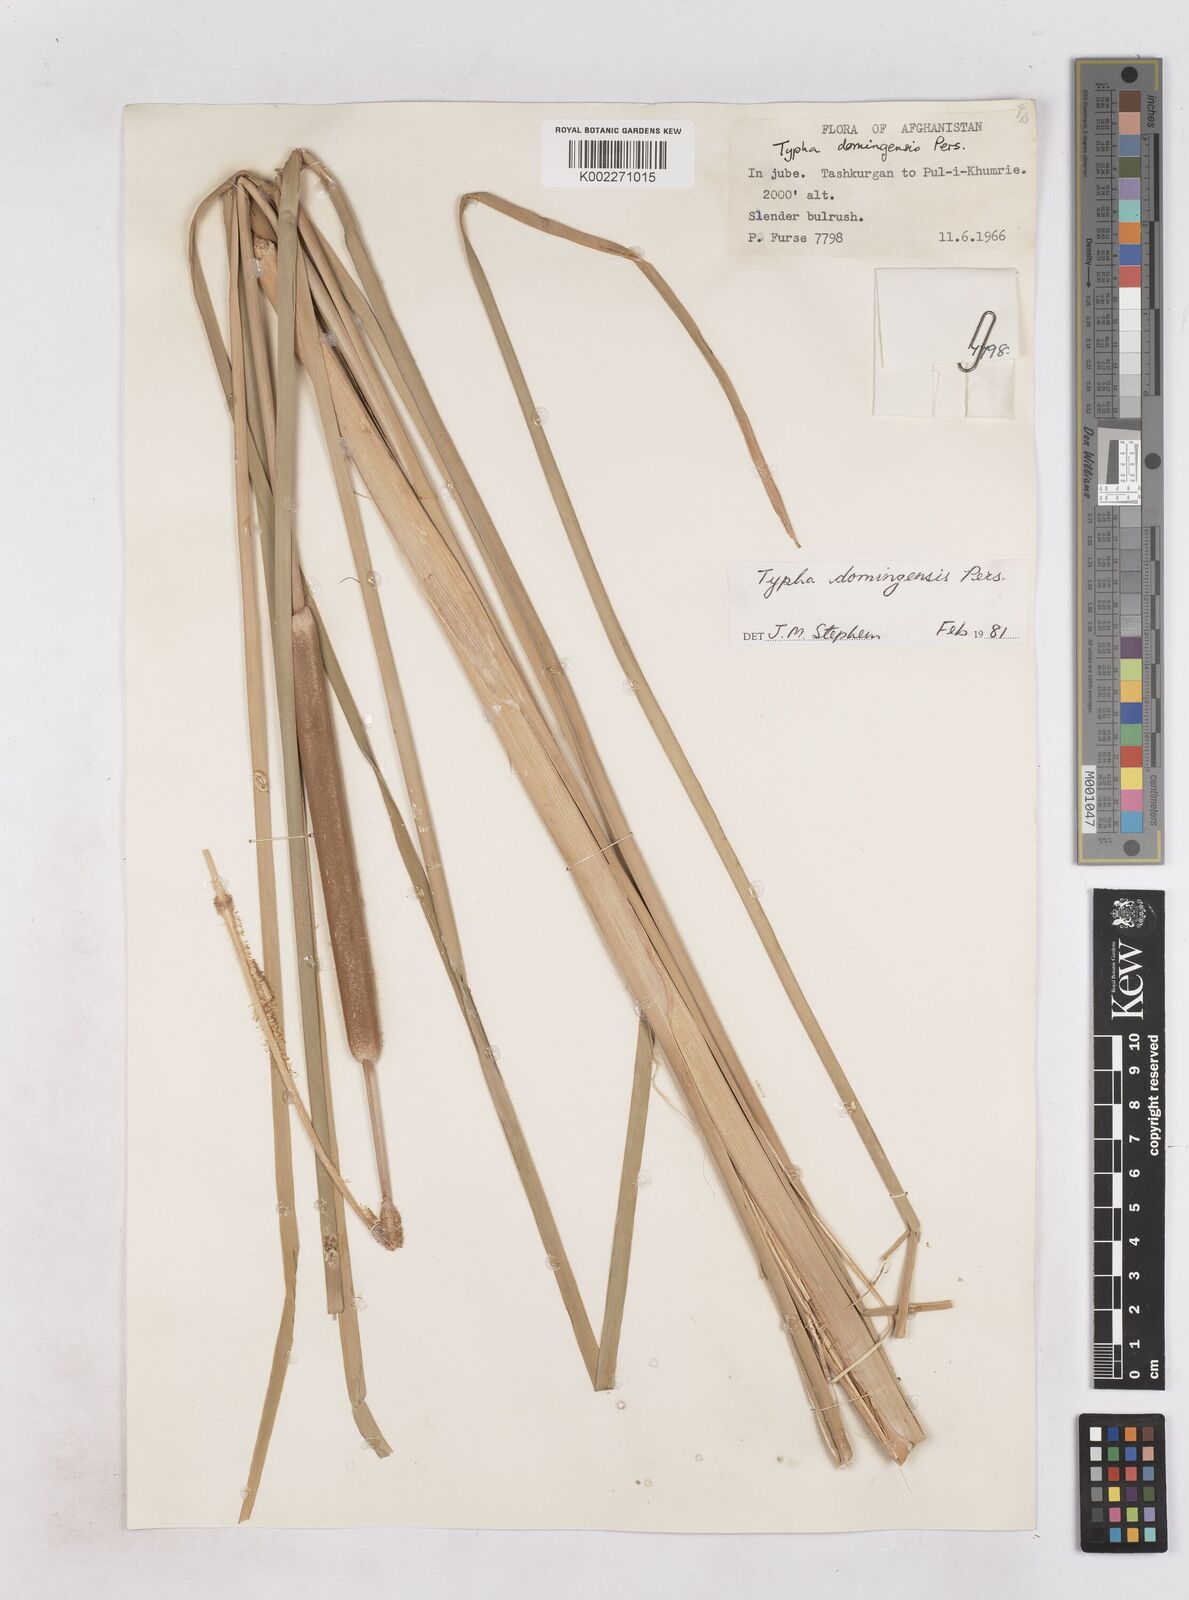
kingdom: Plantae
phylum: Tracheophyta
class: Liliopsida
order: Poales
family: Typhaceae
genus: Typha
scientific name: Typha domingensis
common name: Southern cattail
